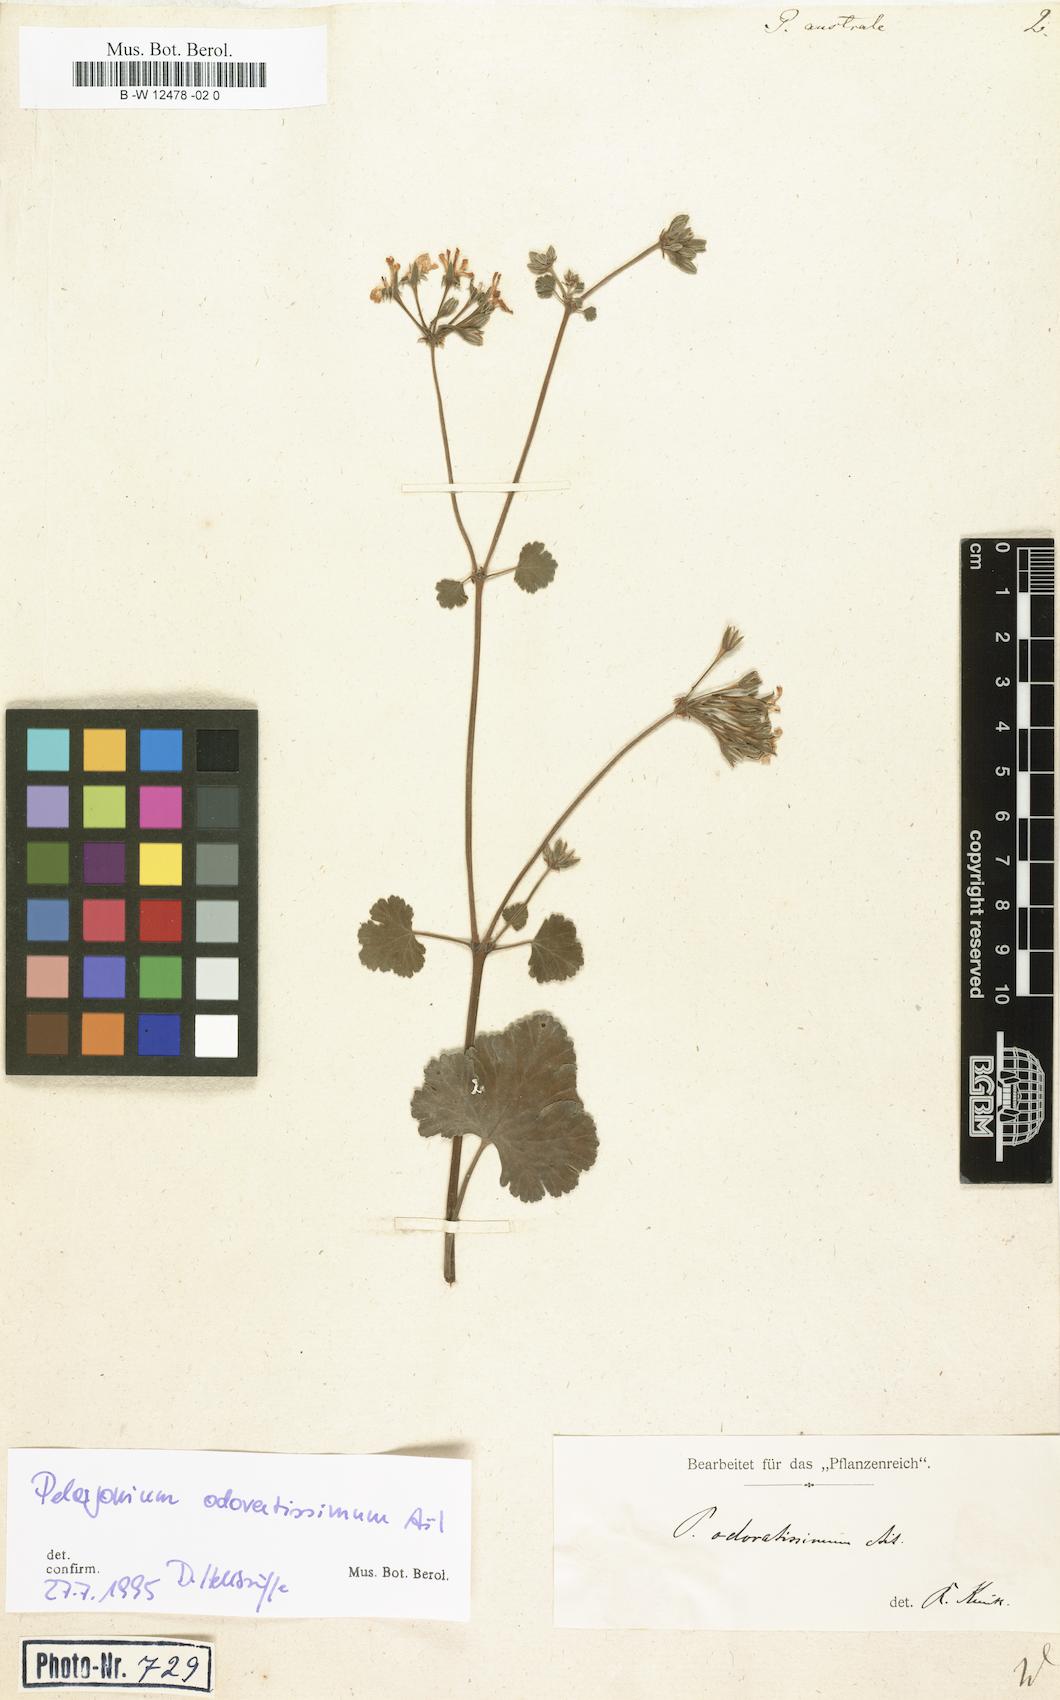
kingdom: Plantae
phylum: Tracheophyta
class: Magnoliopsida
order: Geraniales
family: Geraniaceae
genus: Pelargonium
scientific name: Pelargonium australe
